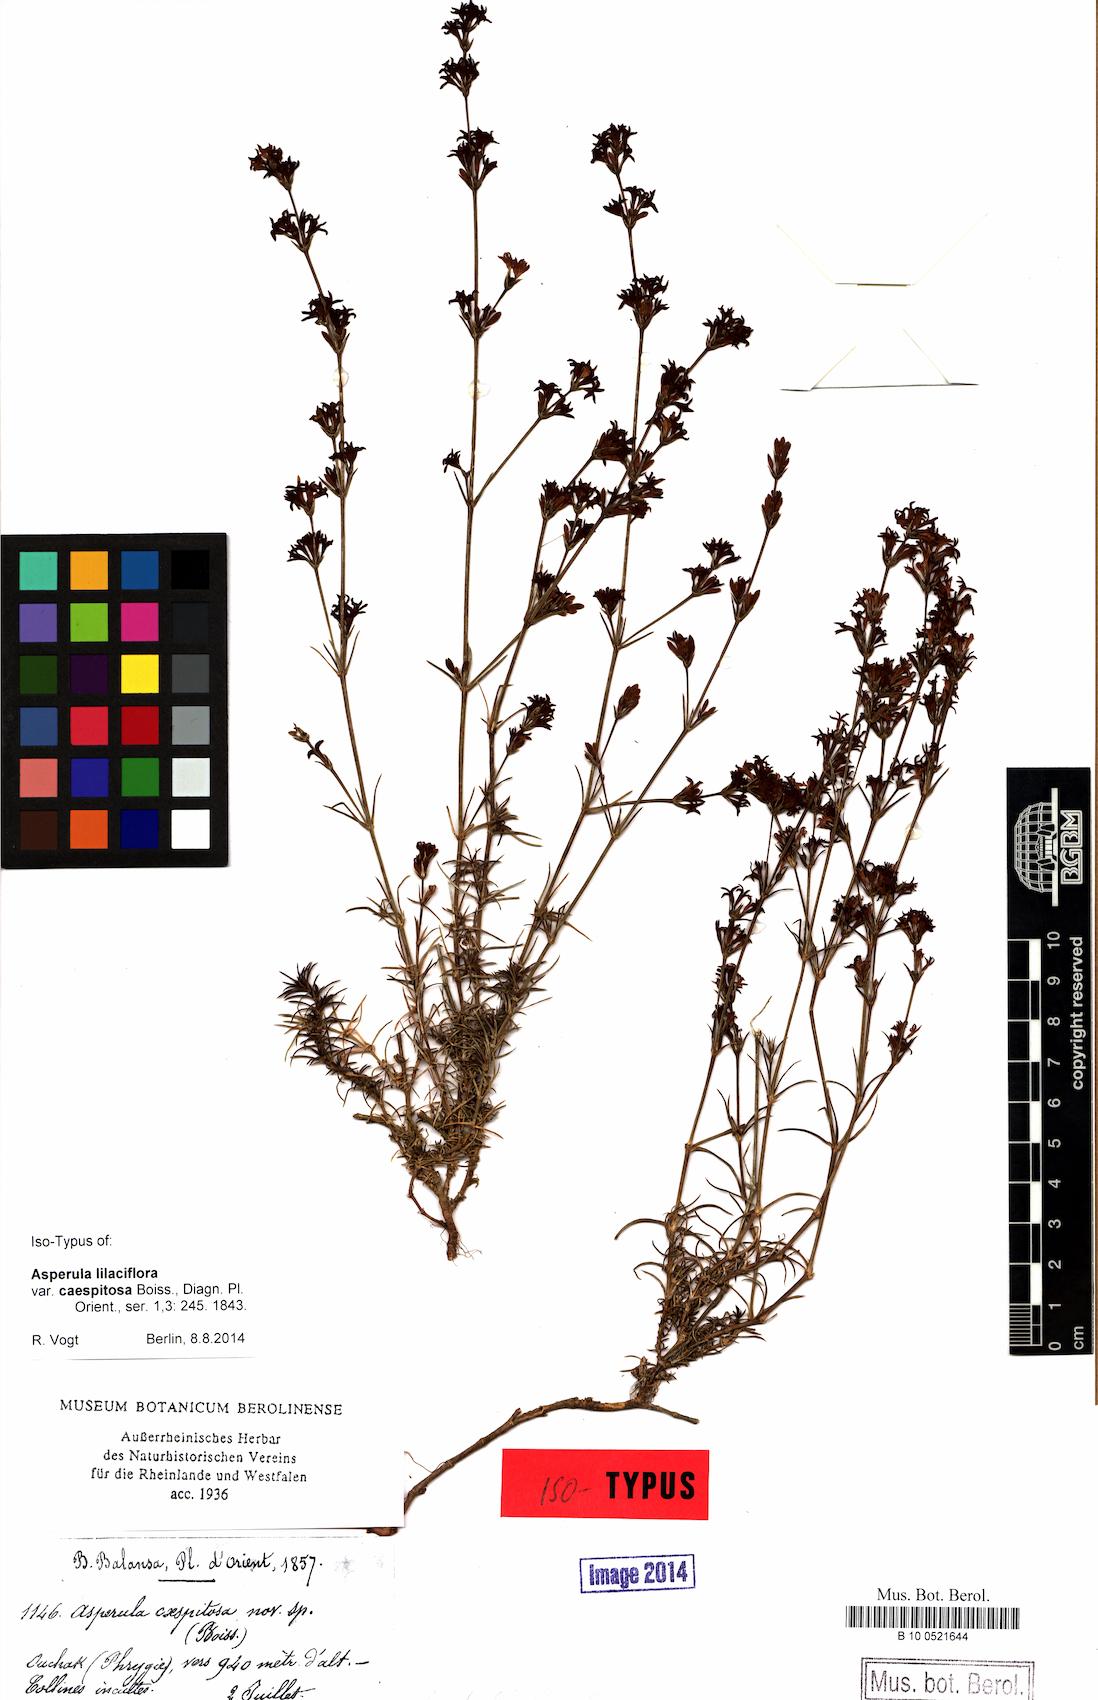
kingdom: Plantae
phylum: Tracheophyta
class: Magnoliopsida
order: Gentianales
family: Rubiaceae
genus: Cynanchica
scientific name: Cynanchica lilaciflora
